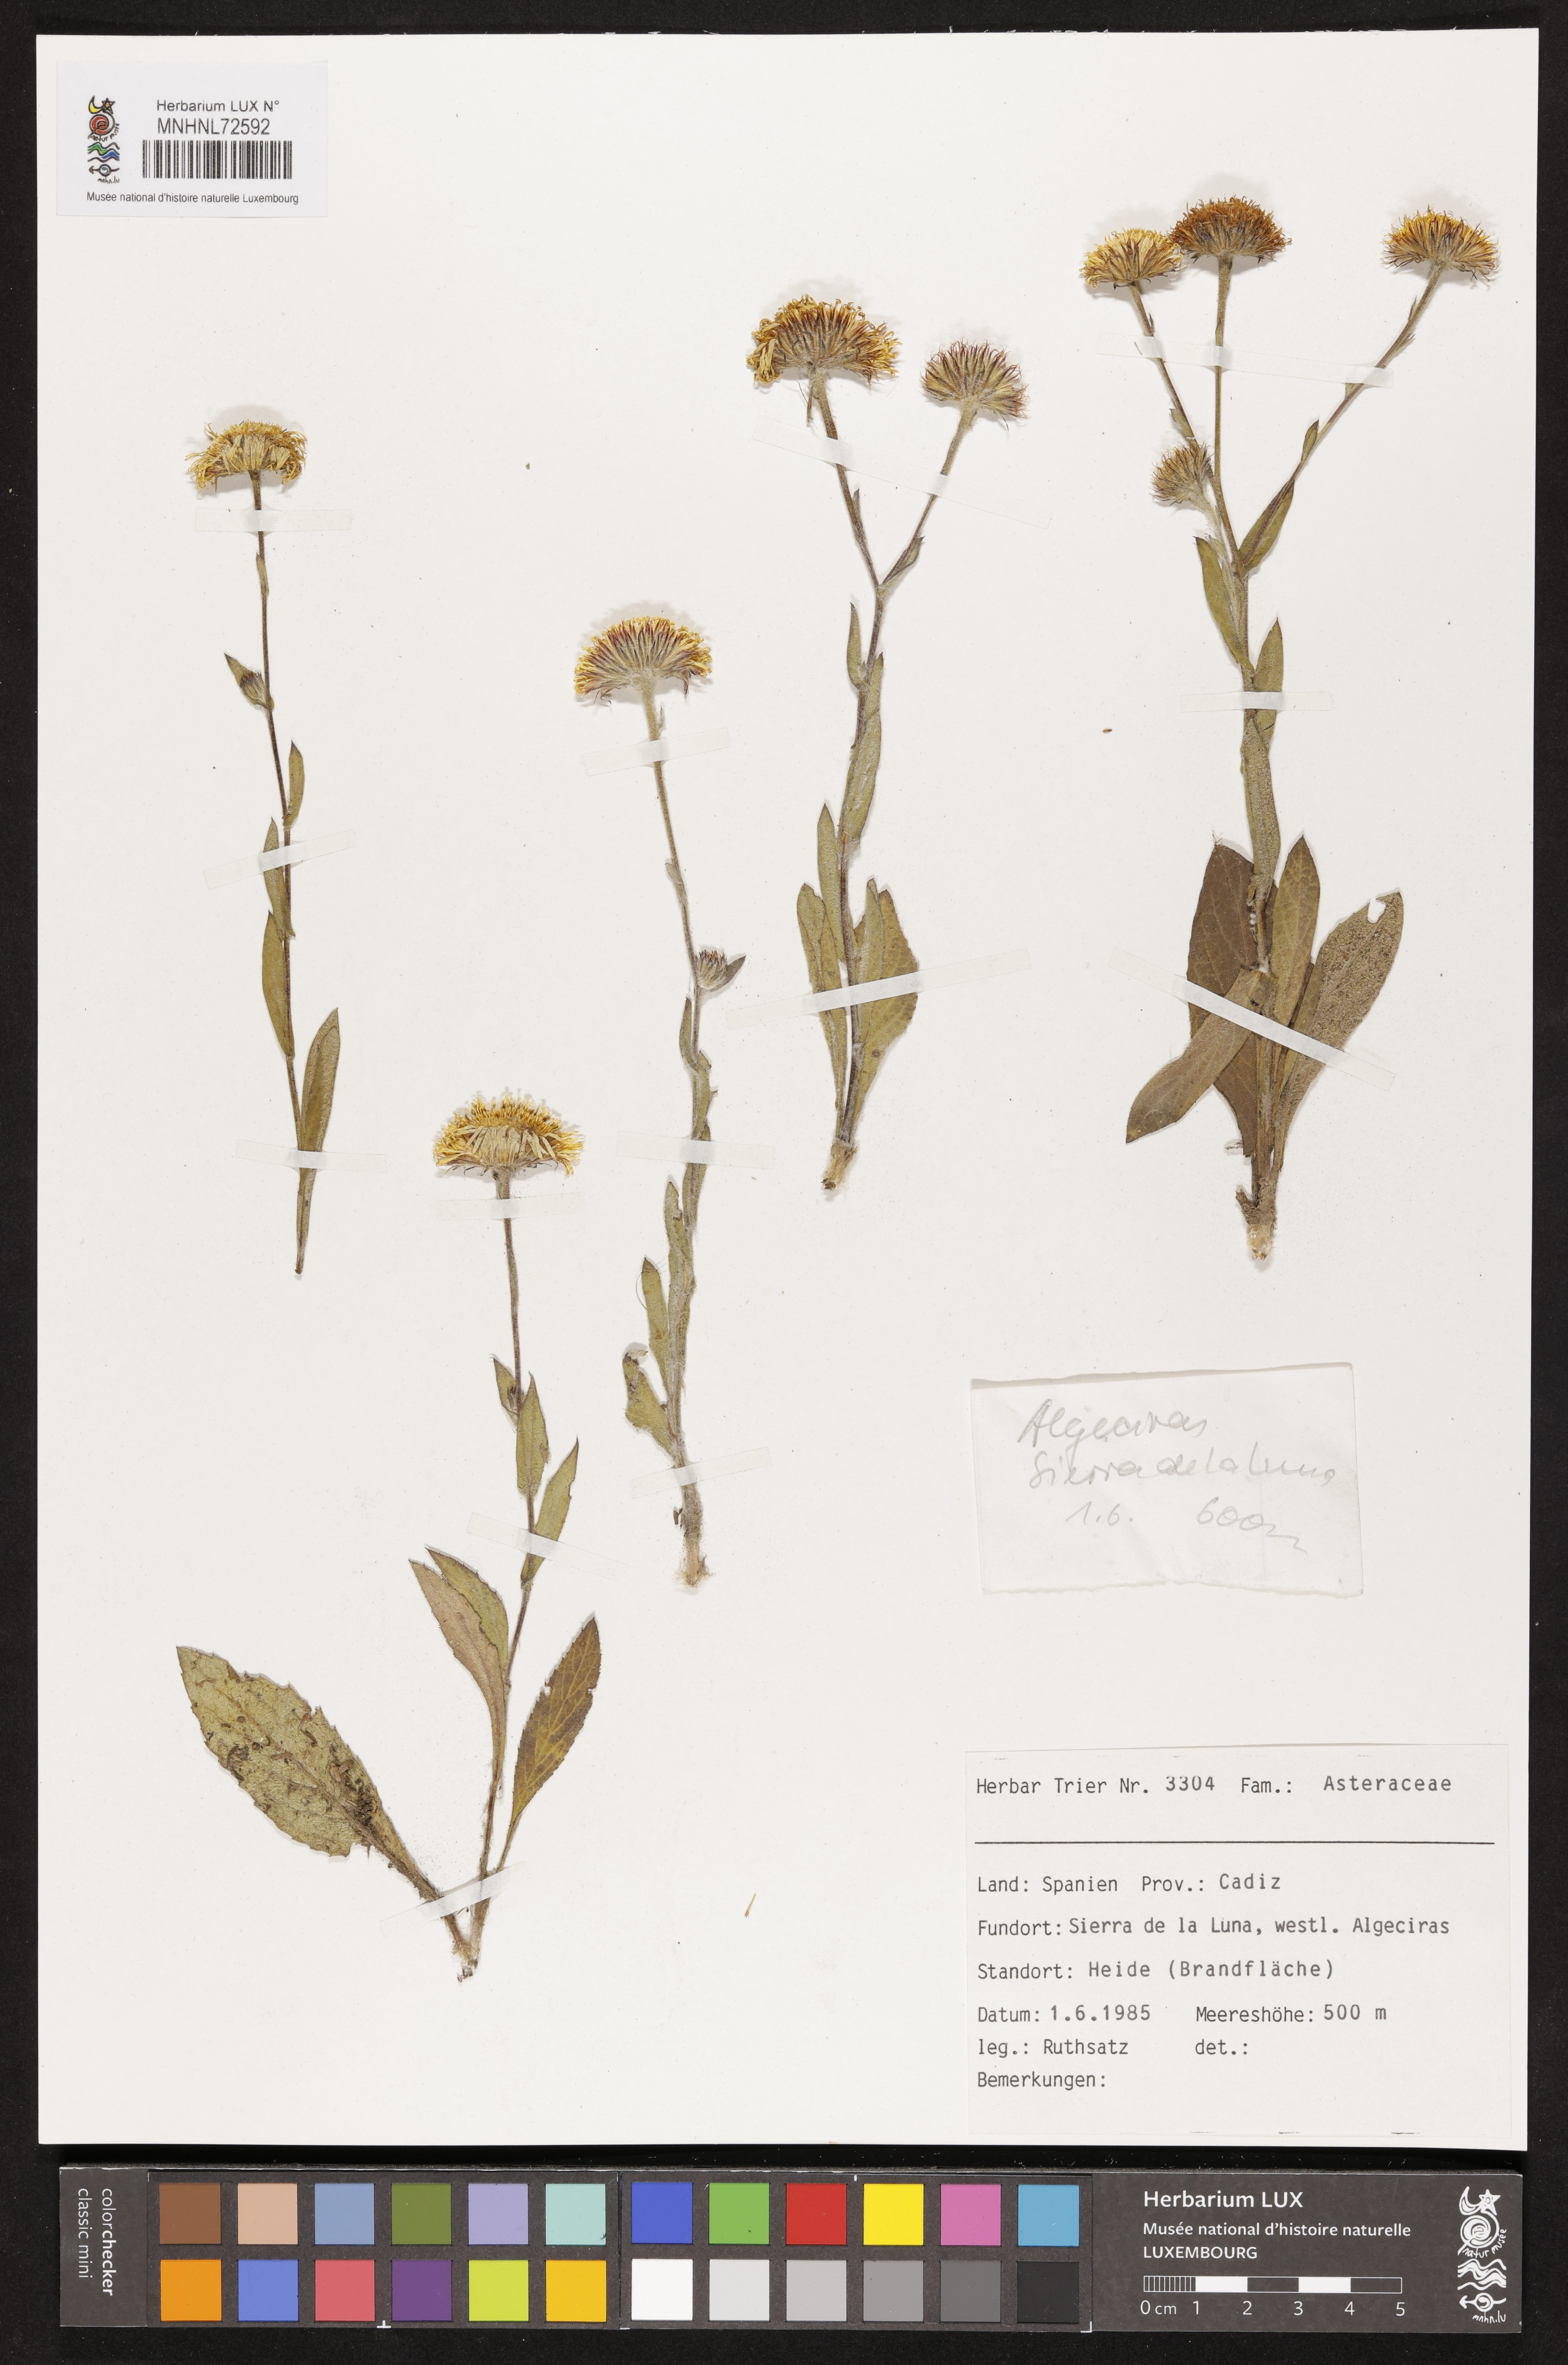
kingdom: Plantae
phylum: Tracheophyta
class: Magnoliopsida
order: Asterales
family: Asteraceae
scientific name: Asteraceae
